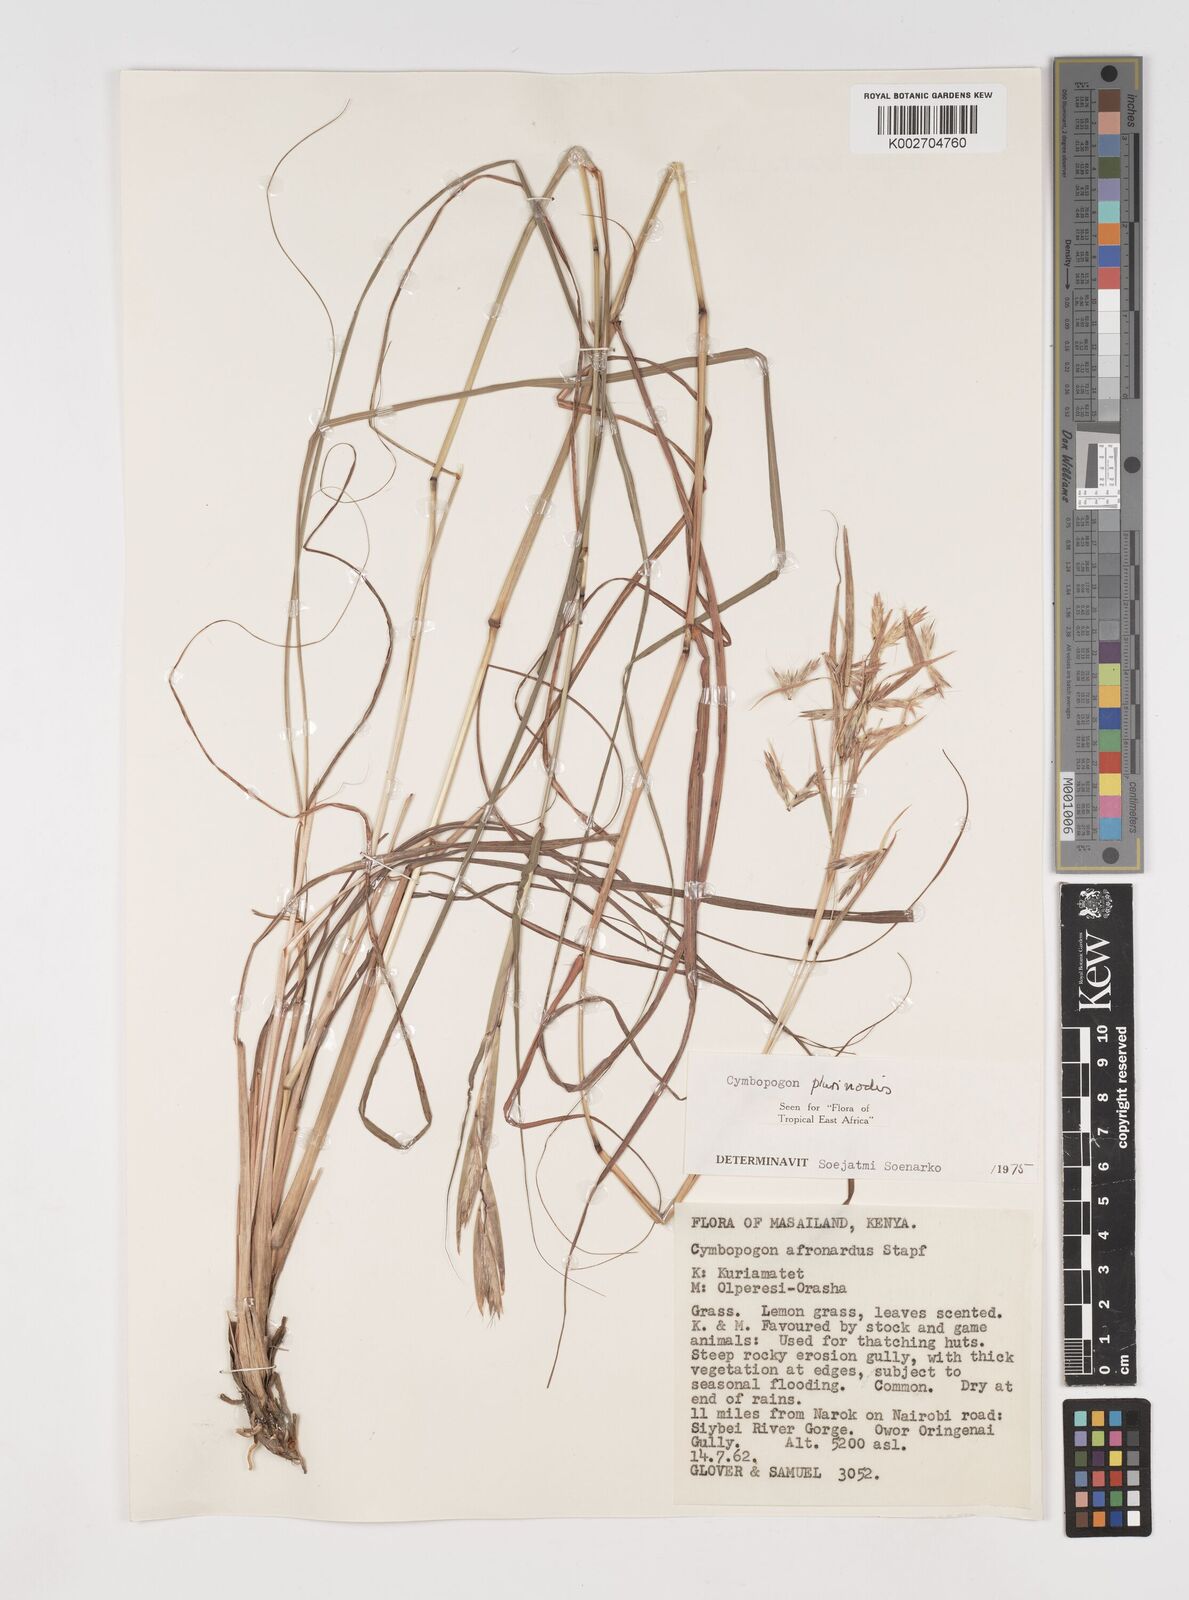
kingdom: Plantae
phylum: Tracheophyta
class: Liliopsida
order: Poales
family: Poaceae
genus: Cymbopogon
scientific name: Cymbopogon pospischilii
